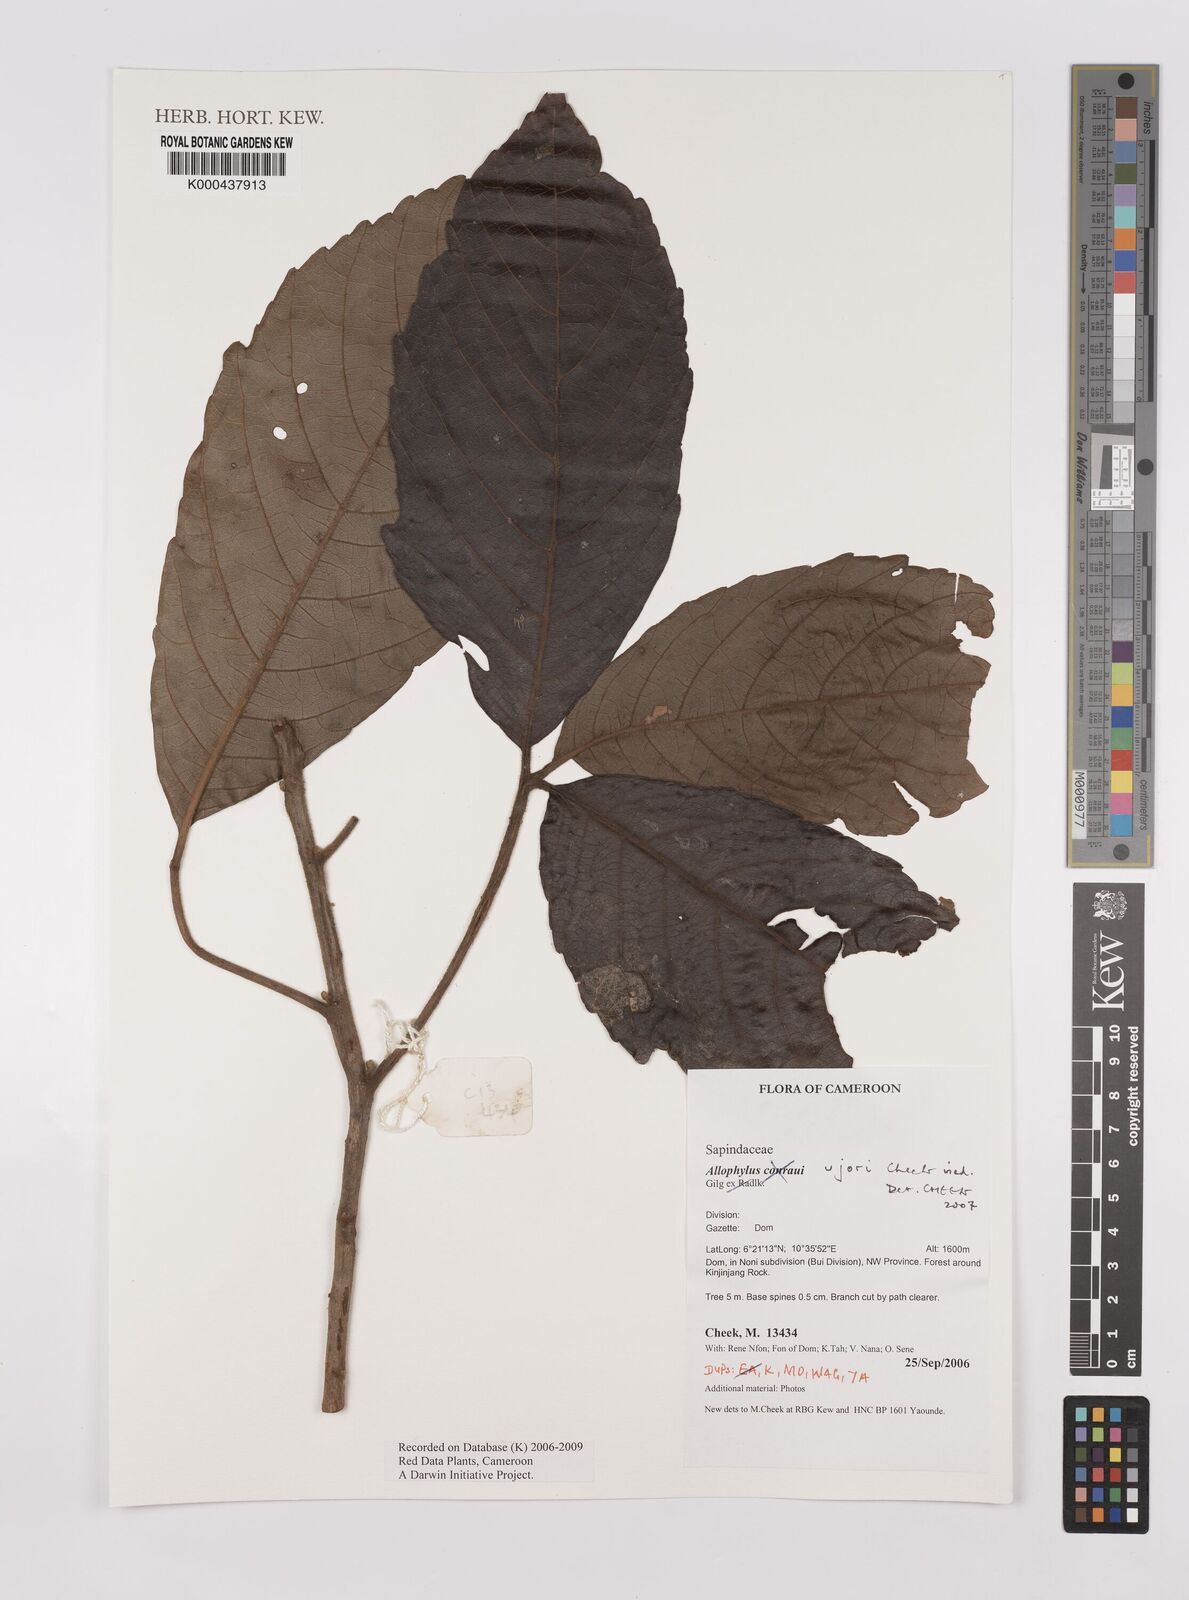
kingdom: Plantae
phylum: Tracheophyta
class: Magnoliopsida
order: Sapindales
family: Sapindaceae
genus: Allophylus
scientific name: Allophylus ujori
